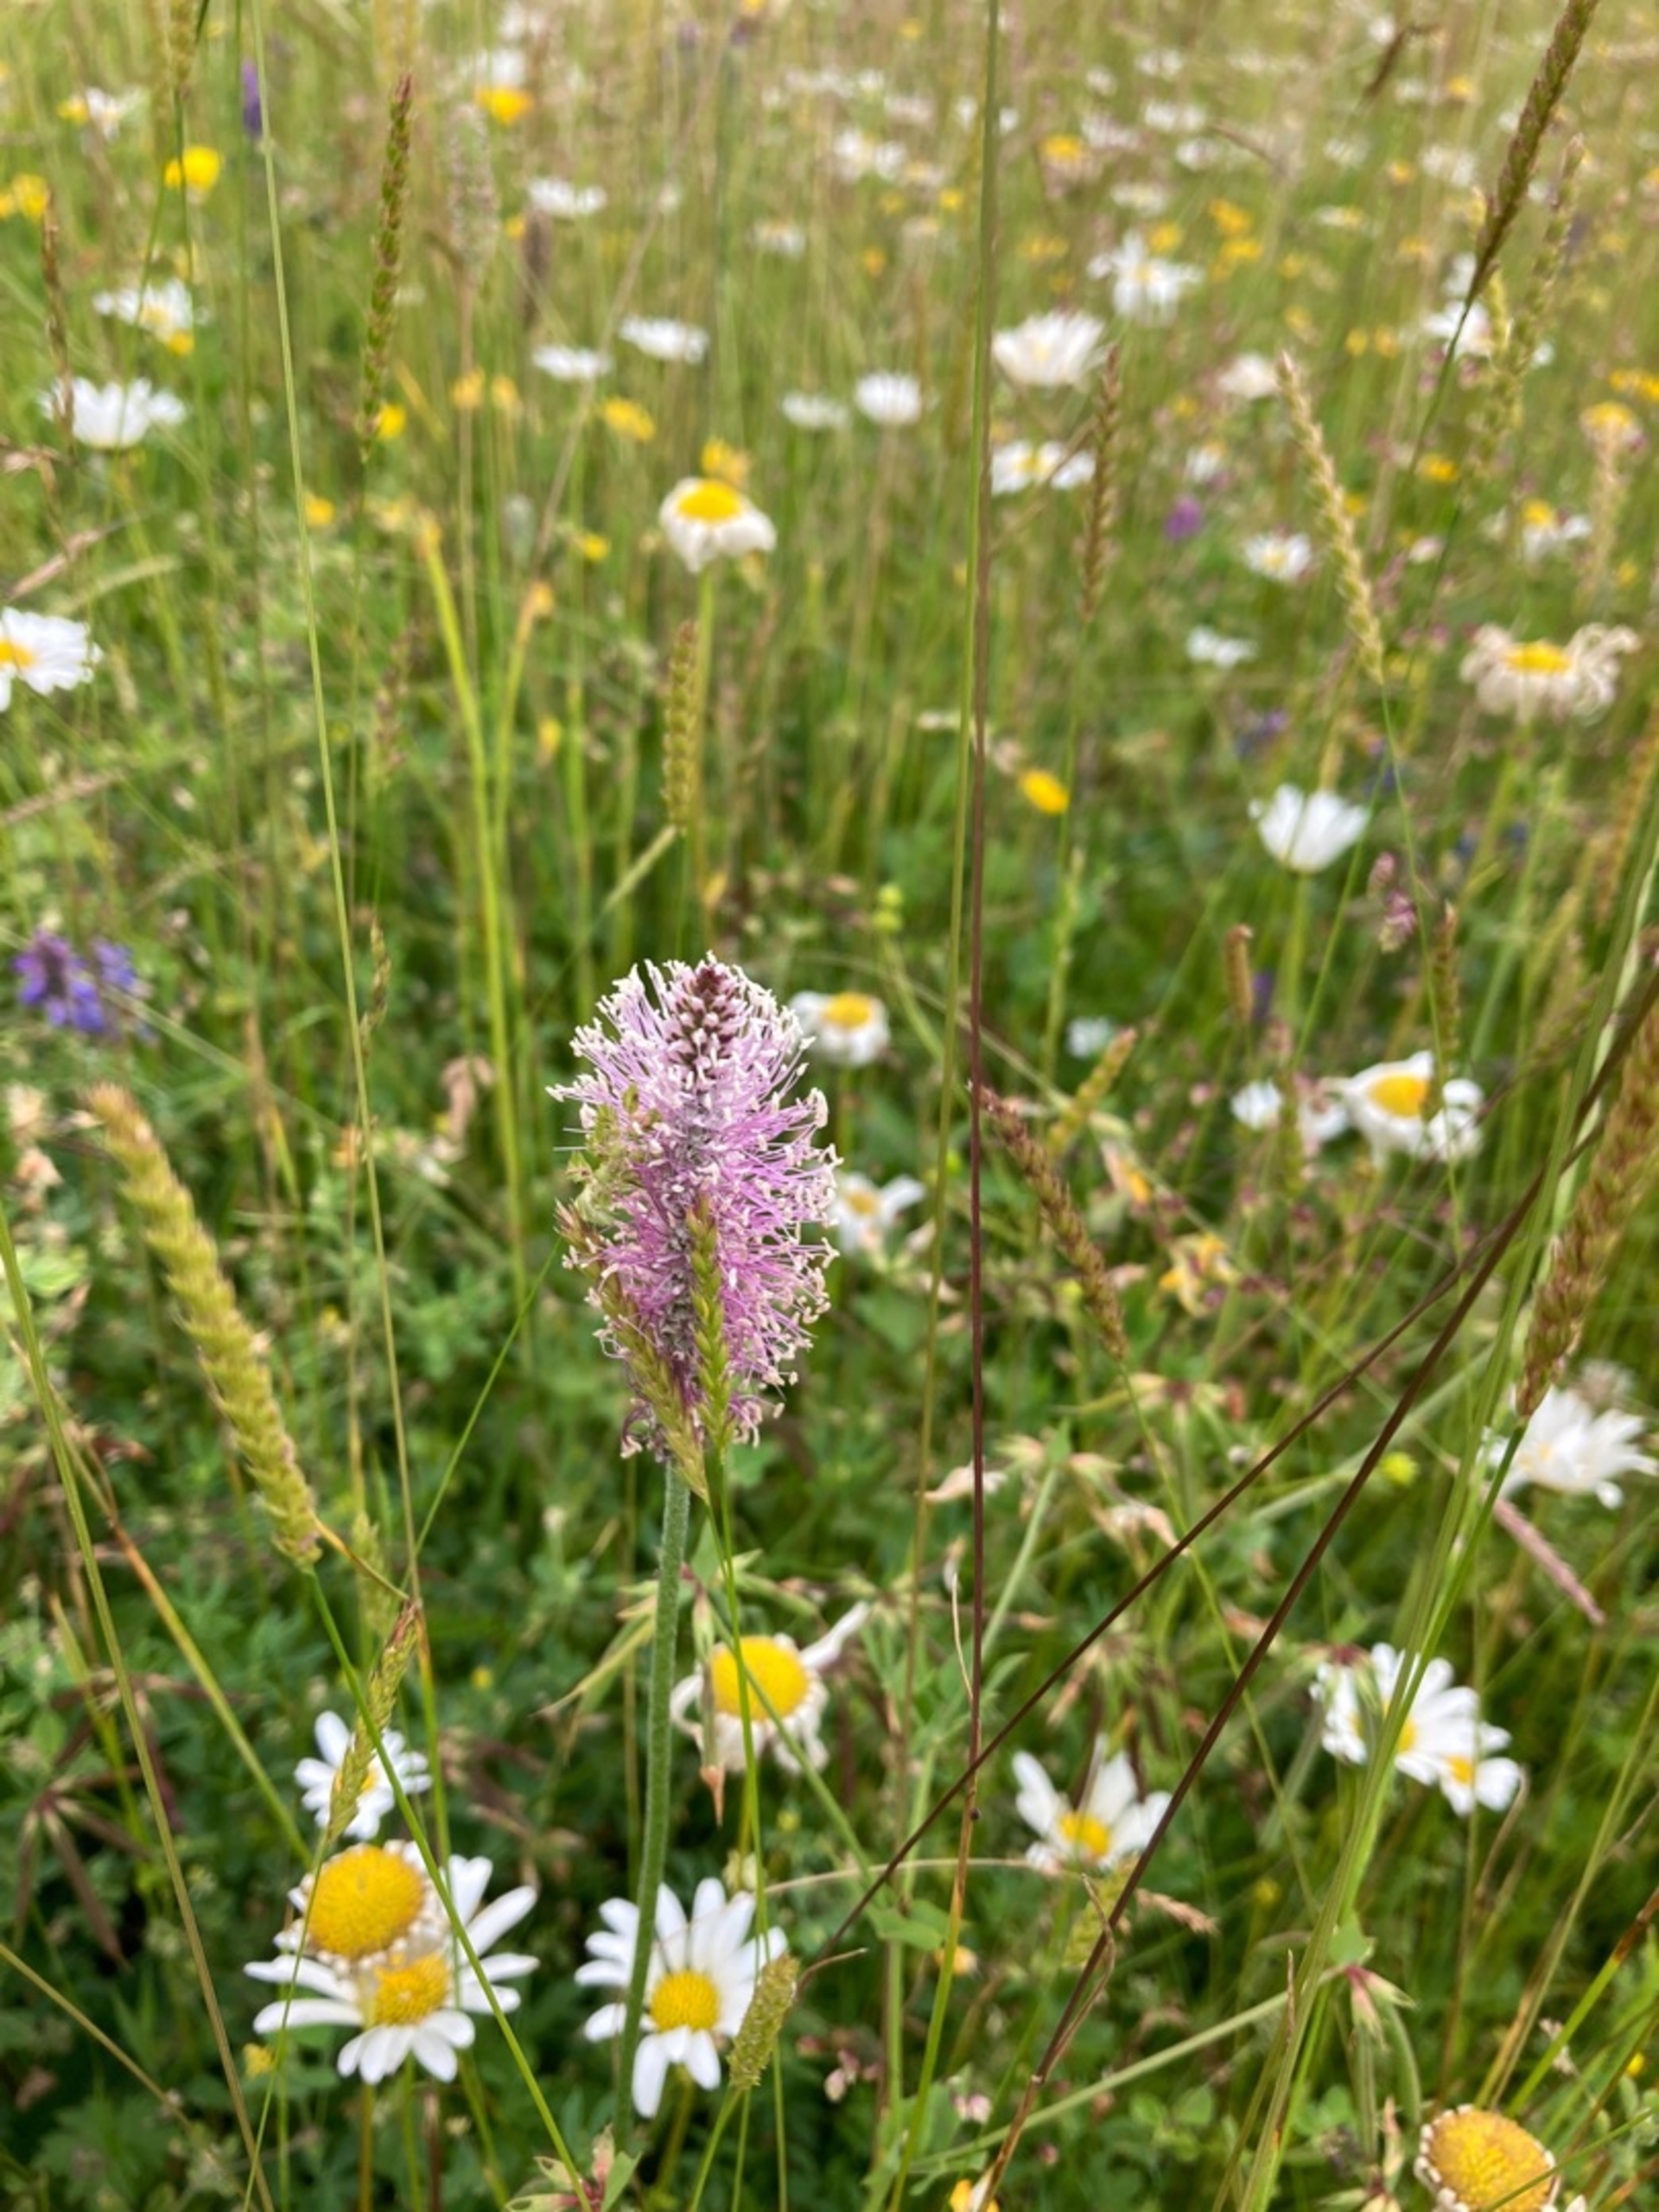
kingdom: Plantae
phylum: Tracheophyta
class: Magnoliopsida
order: Lamiales
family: Plantaginaceae
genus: Plantago
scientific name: Plantago media
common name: Dunet vejbred
